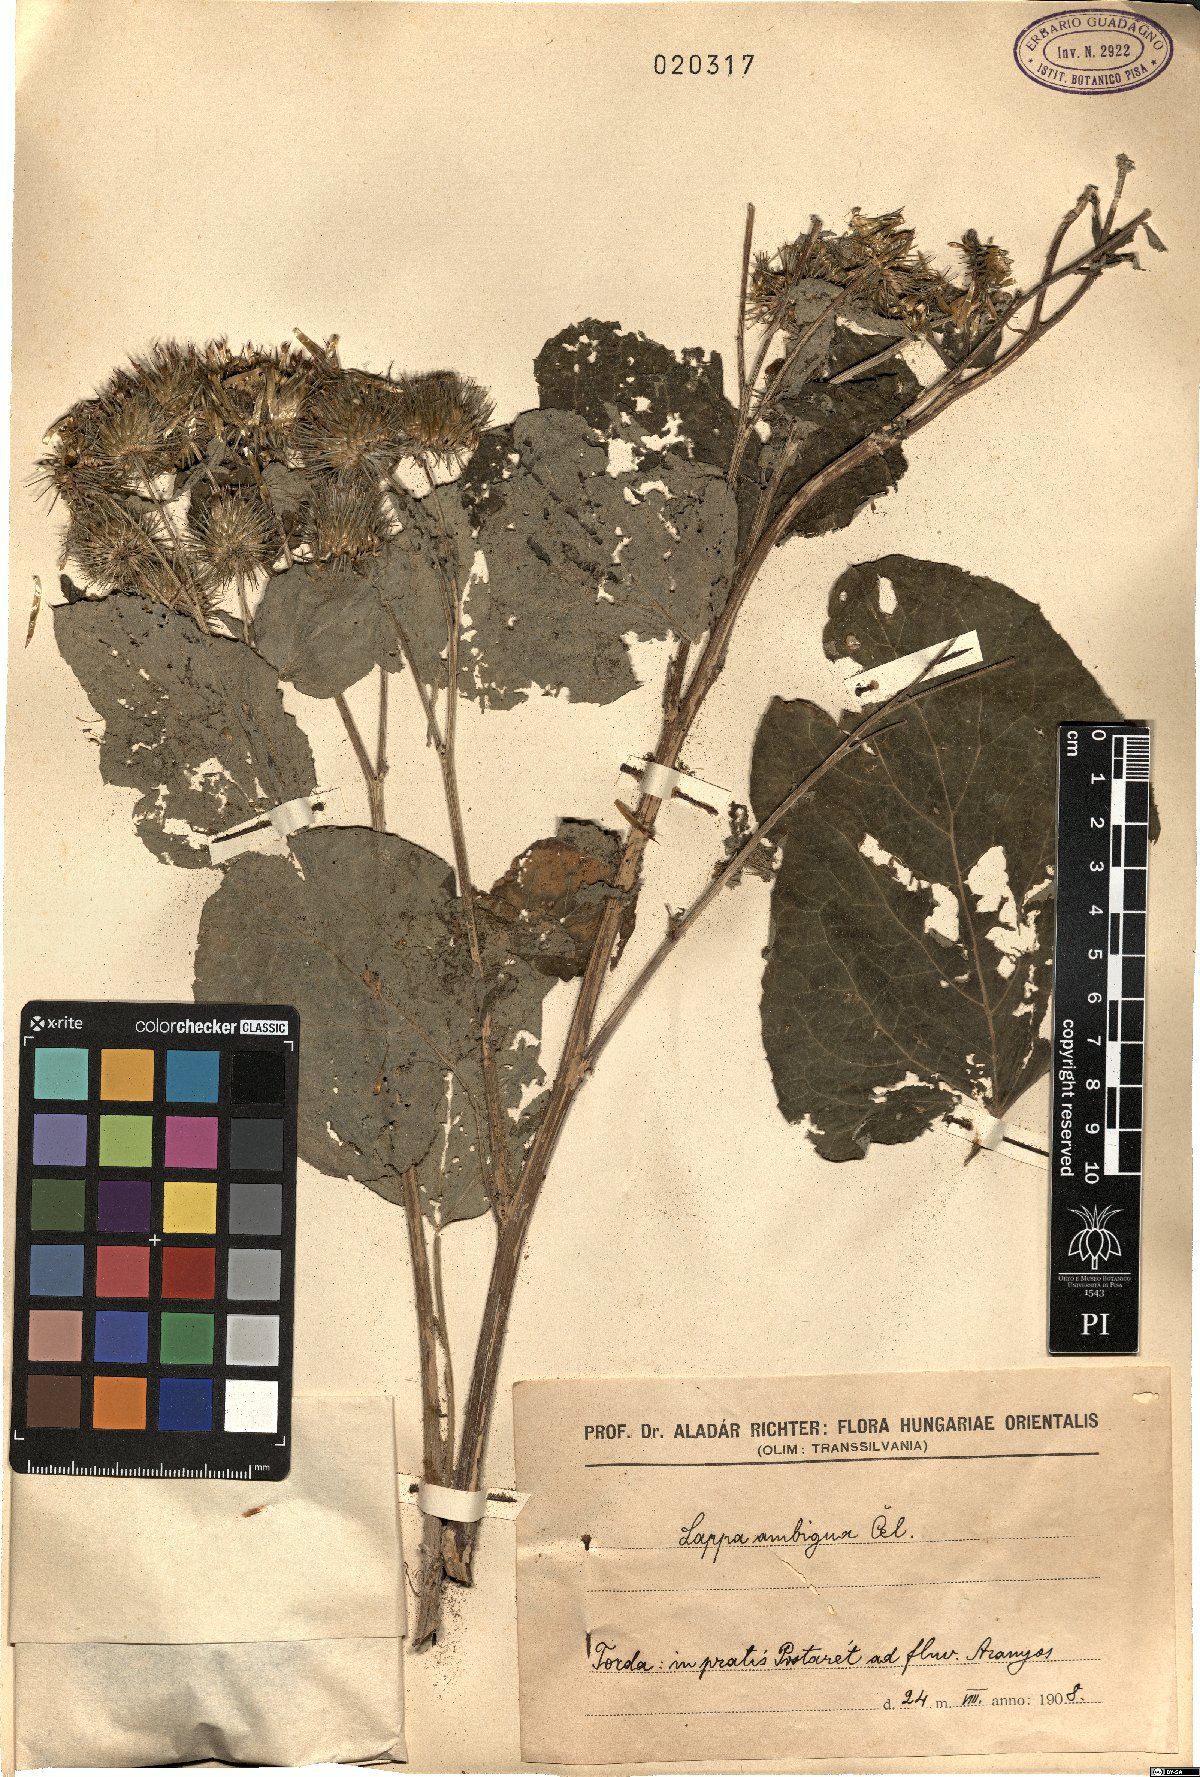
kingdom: Plantae
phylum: Tracheophyta
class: Magnoliopsida
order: Asterales
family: Asteraceae
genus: Arctium
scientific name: Arctium Lappa ambigua
